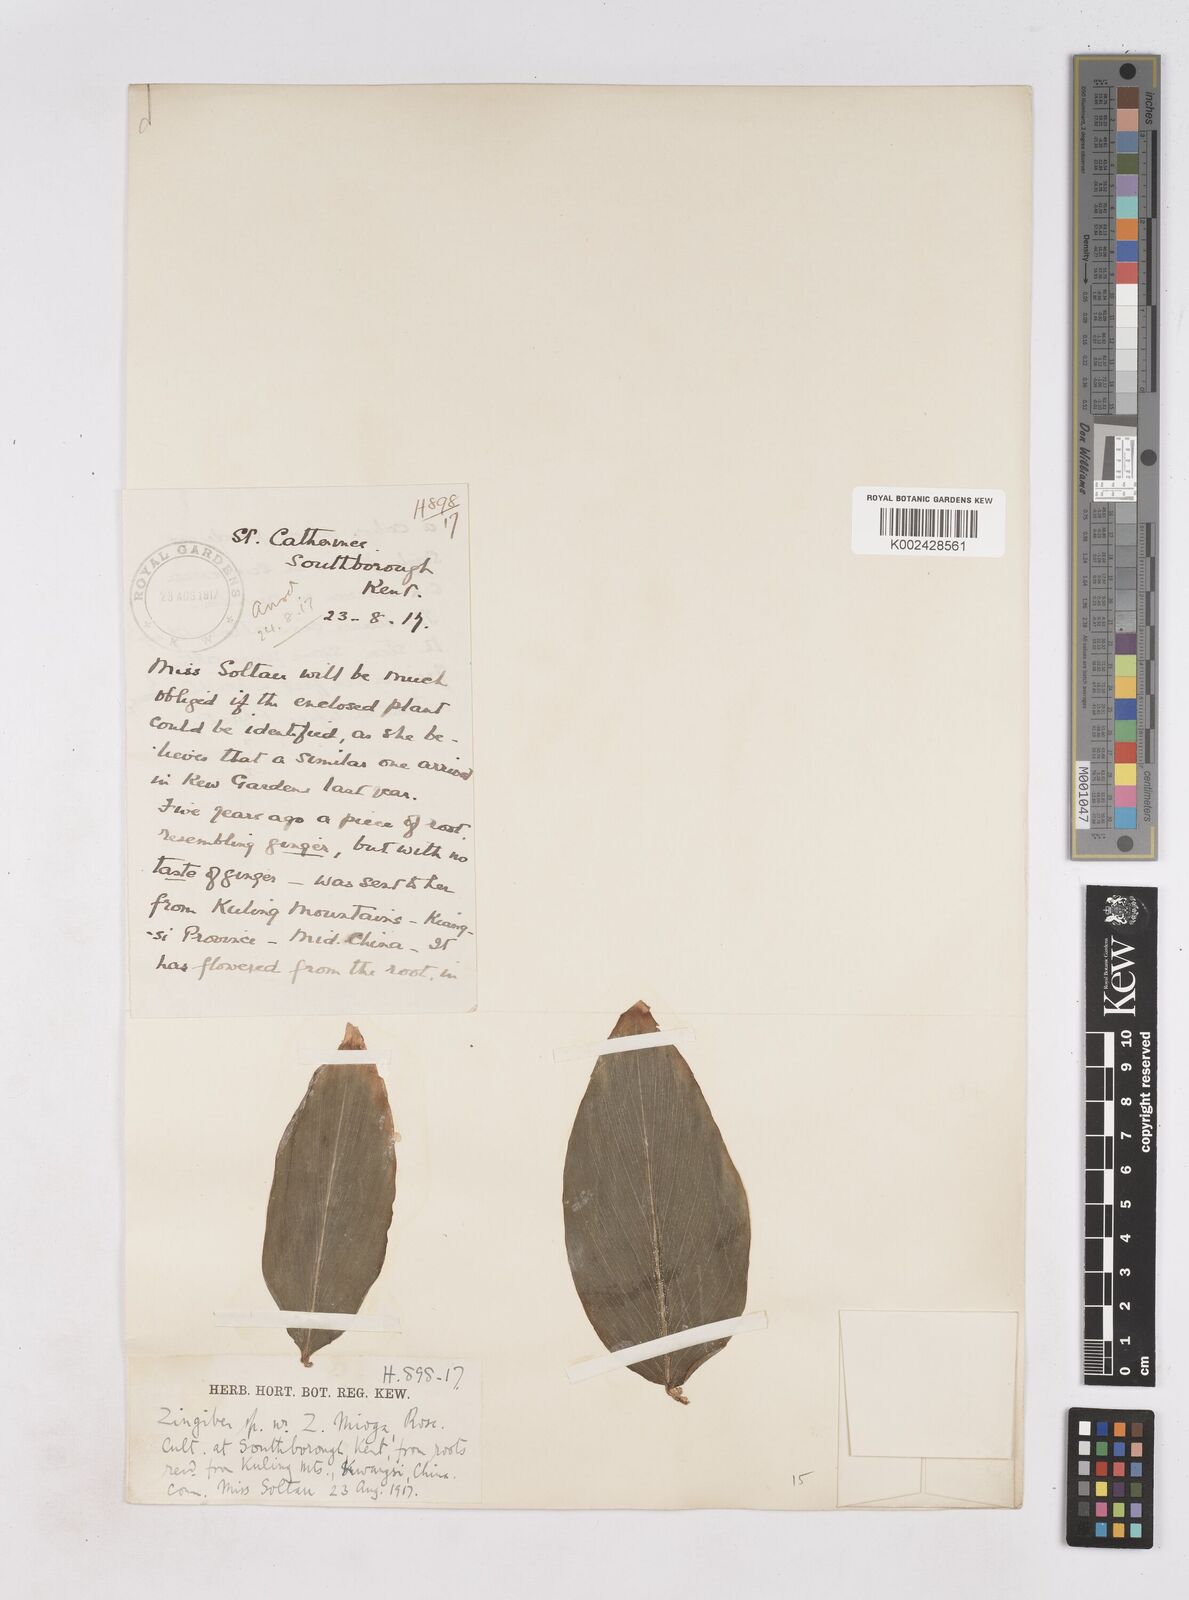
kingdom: Plantae
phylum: Tracheophyta
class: Liliopsida
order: Zingiberales
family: Zingiberaceae
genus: Zingiber
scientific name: Zingiber
